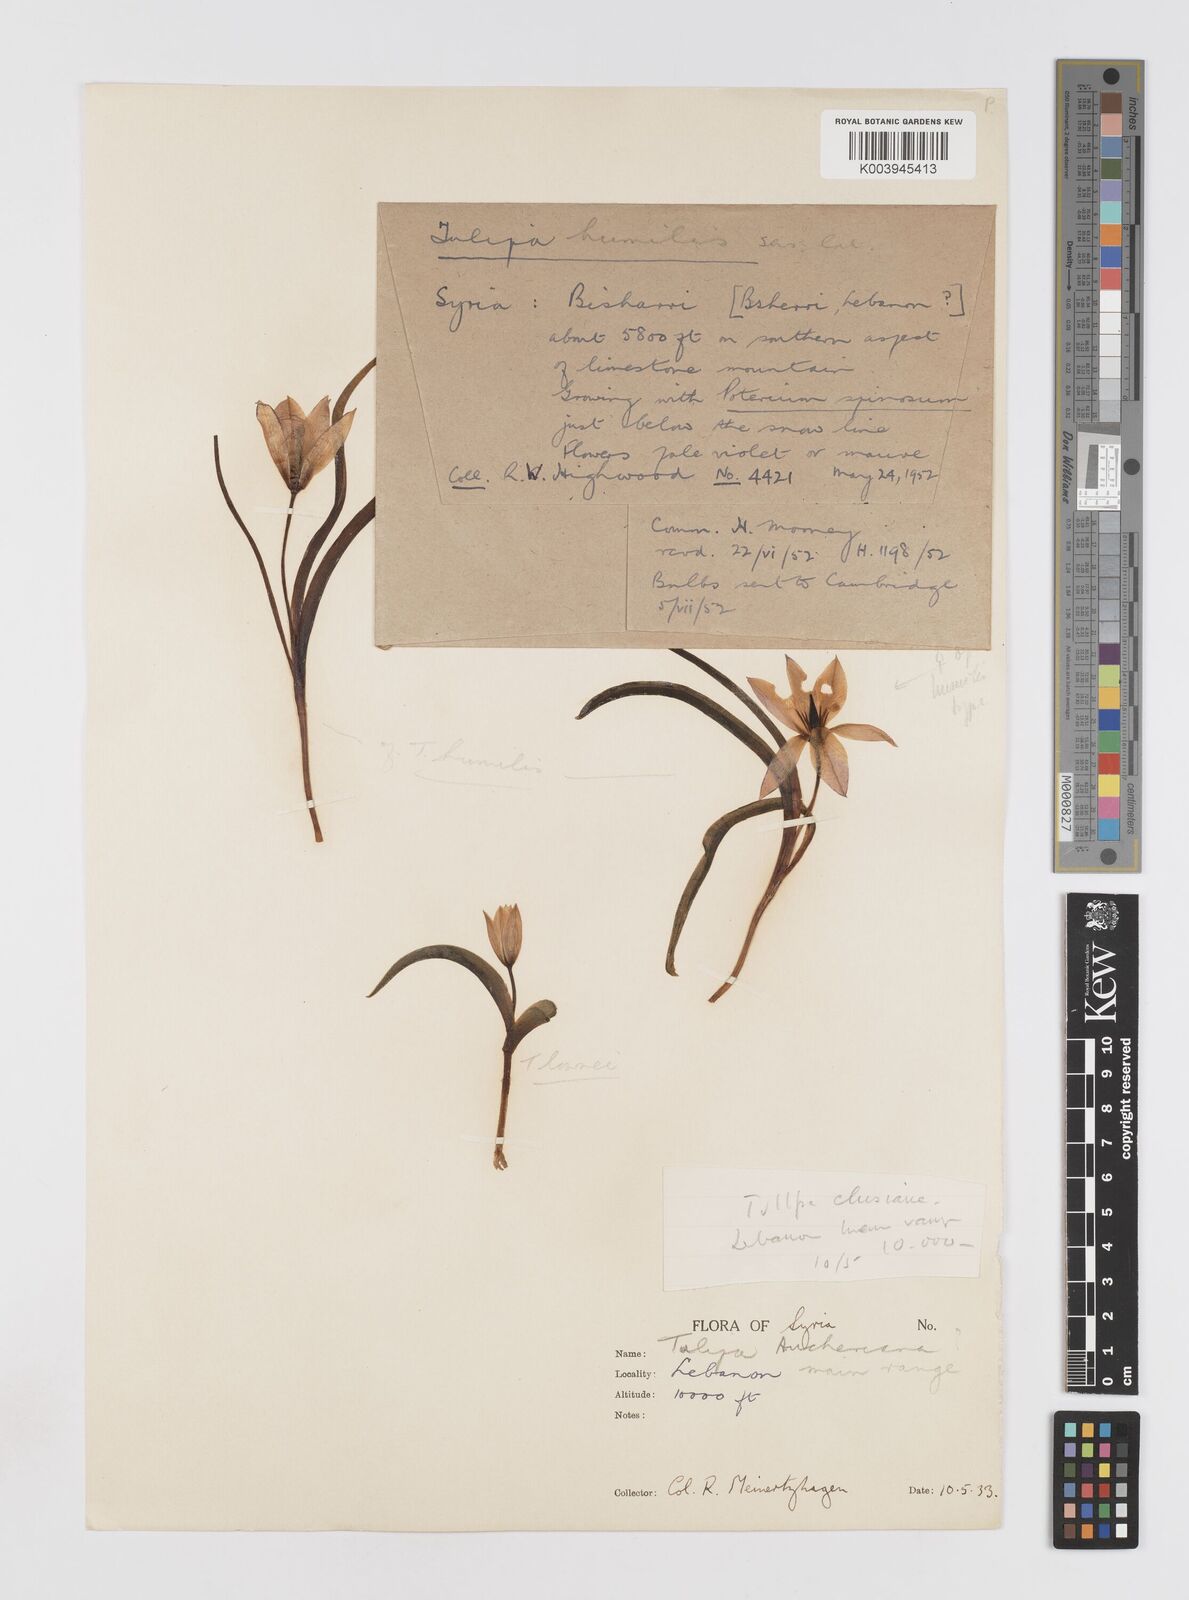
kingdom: Plantae
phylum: Tracheophyta
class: Liliopsida
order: Liliales
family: Liliaceae
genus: Tulipa
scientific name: Tulipa humilis
